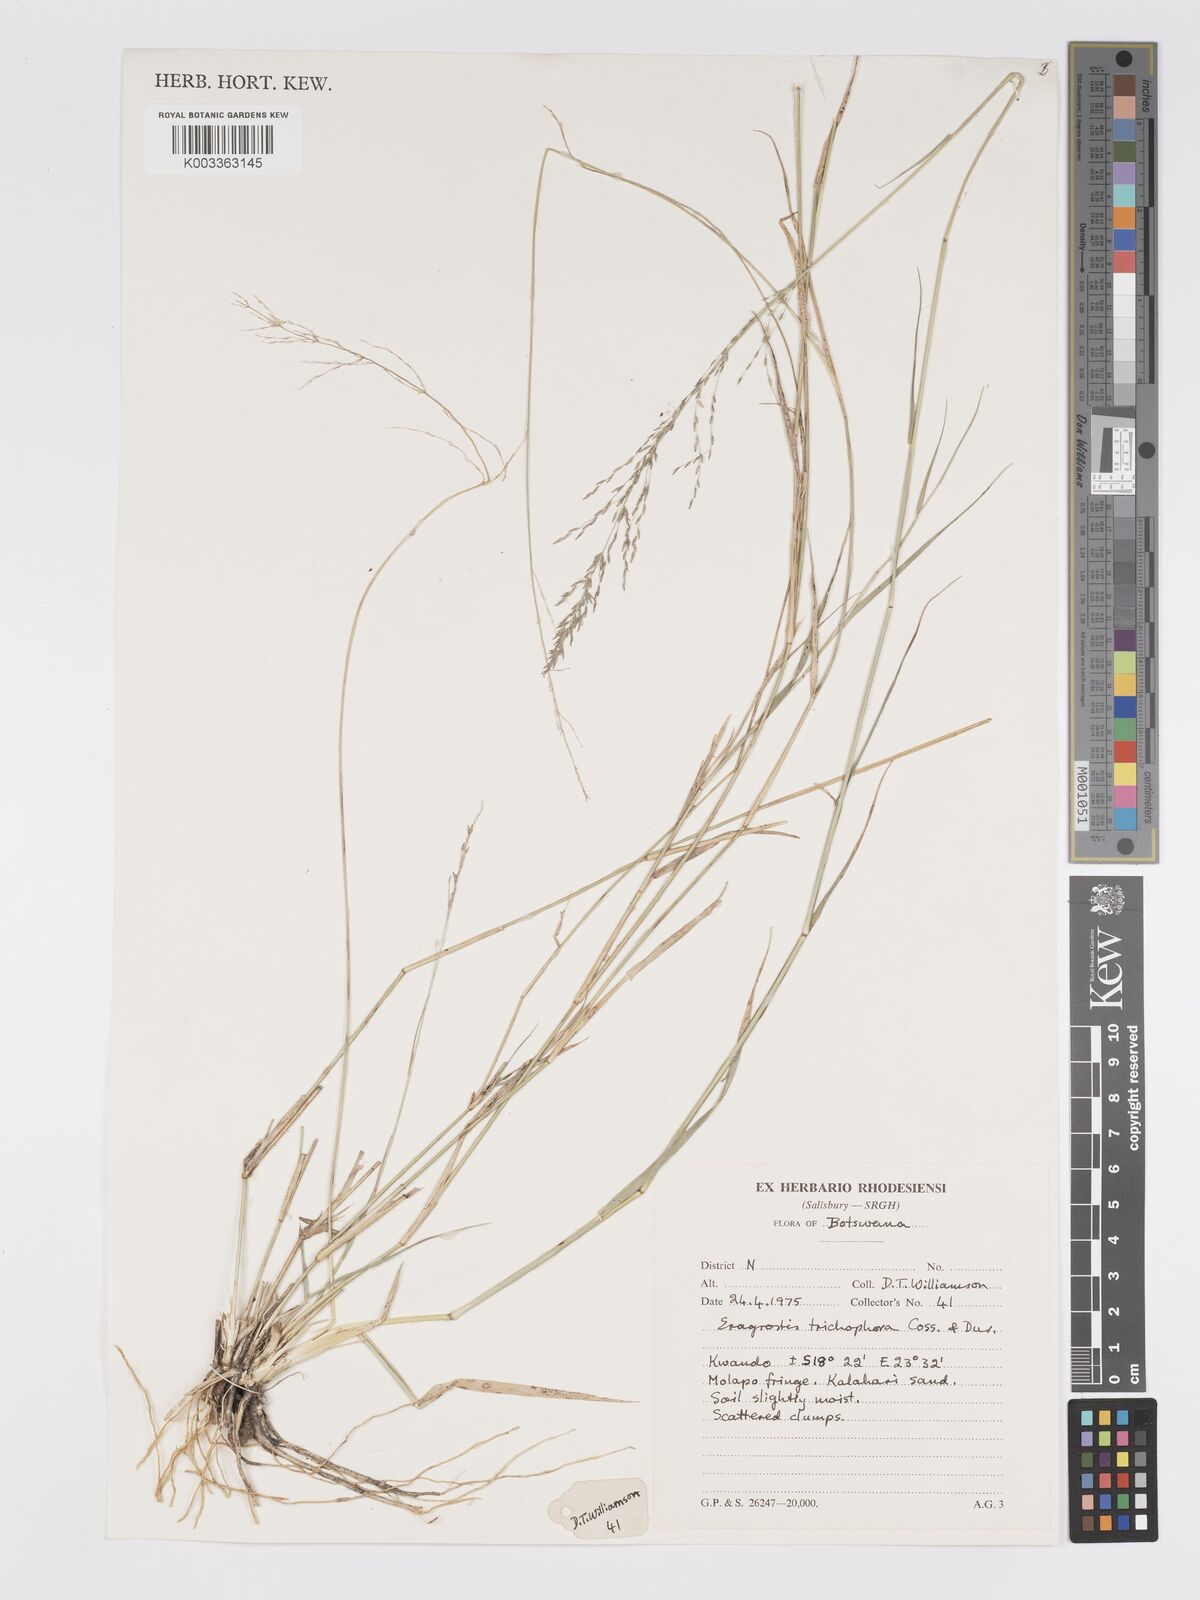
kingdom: Plantae
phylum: Tracheophyta
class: Liliopsida
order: Poales
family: Poaceae
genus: Eragrostis
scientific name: Eragrostis cylindriflora
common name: Cylinderflower lovegrass
